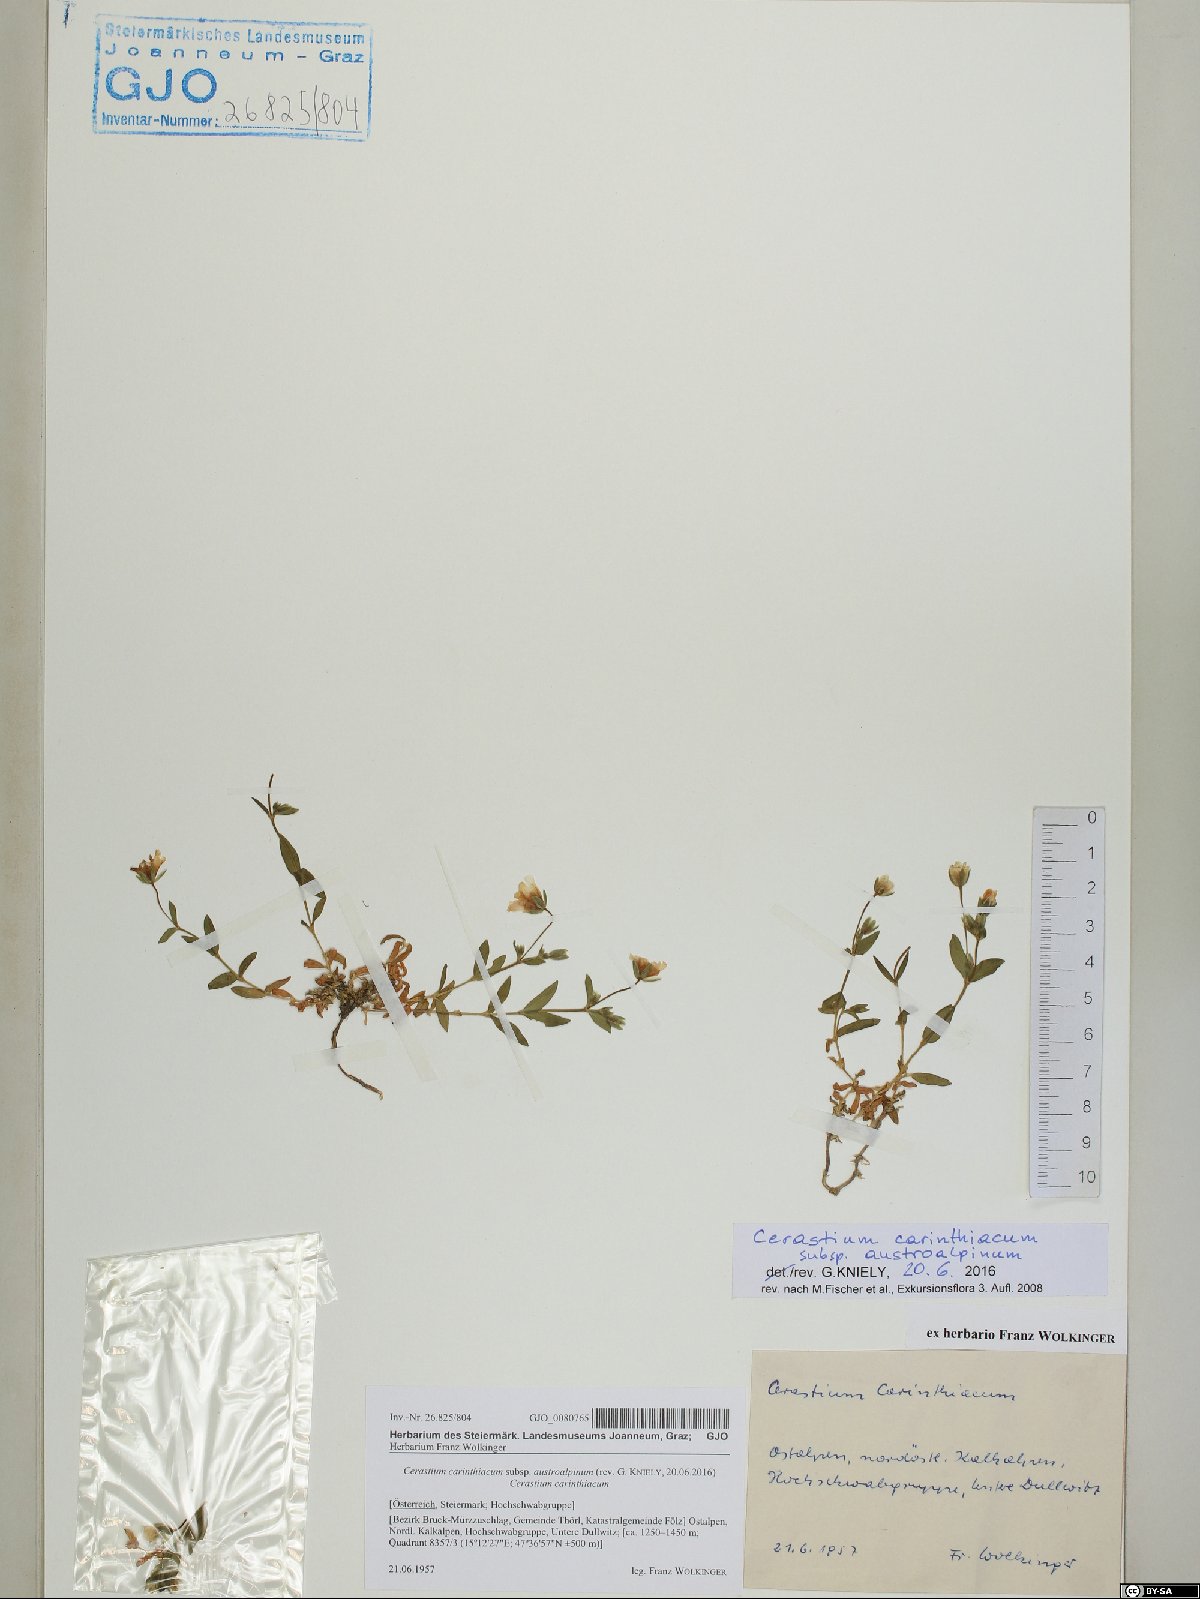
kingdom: Plantae
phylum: Tracheophyta
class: Magnoliopsida
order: Caryophyllales
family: Caryophyllaceae
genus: Cerastium
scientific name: Cerastium carinthiacum
